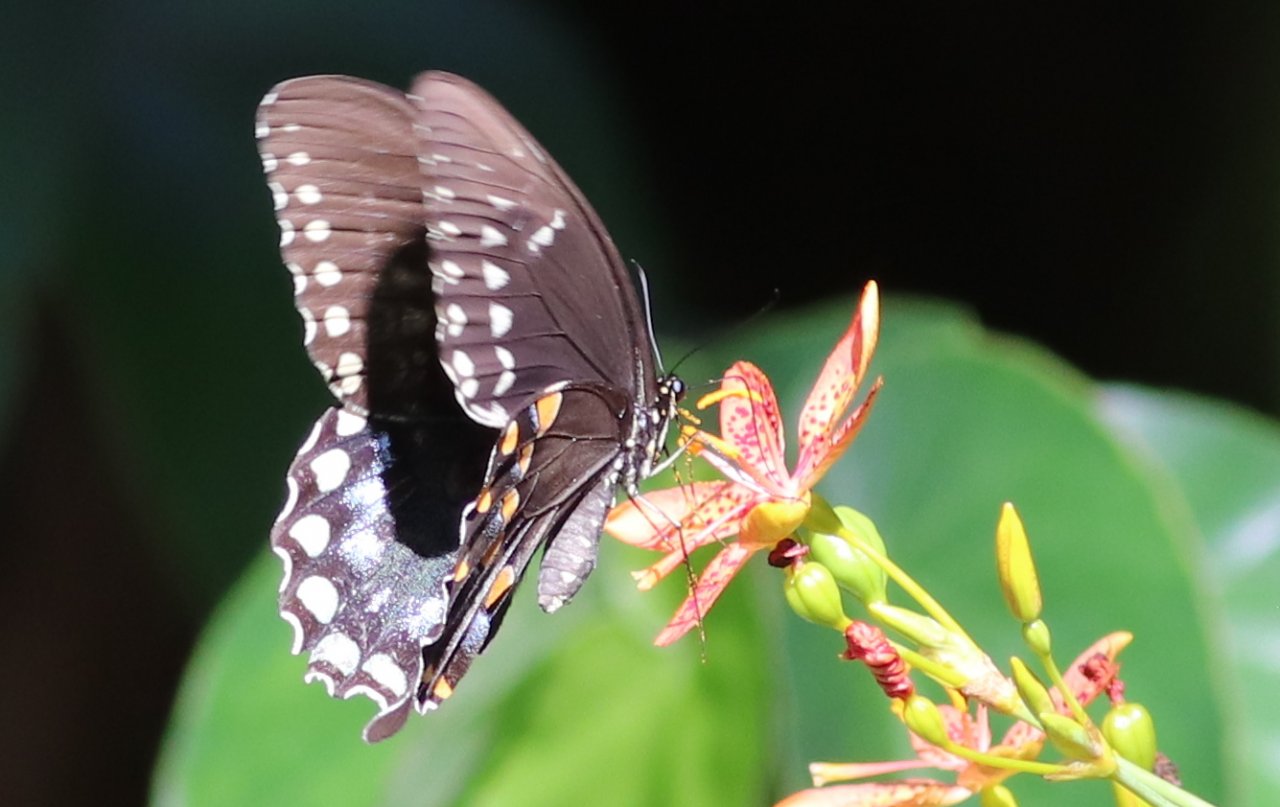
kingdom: Animalia
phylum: Arthropoda
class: Insecta
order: Lepidoptera
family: Papilionidae
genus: Pterourus
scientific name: Pterourus troilus
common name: Spicebush Swallowtail
